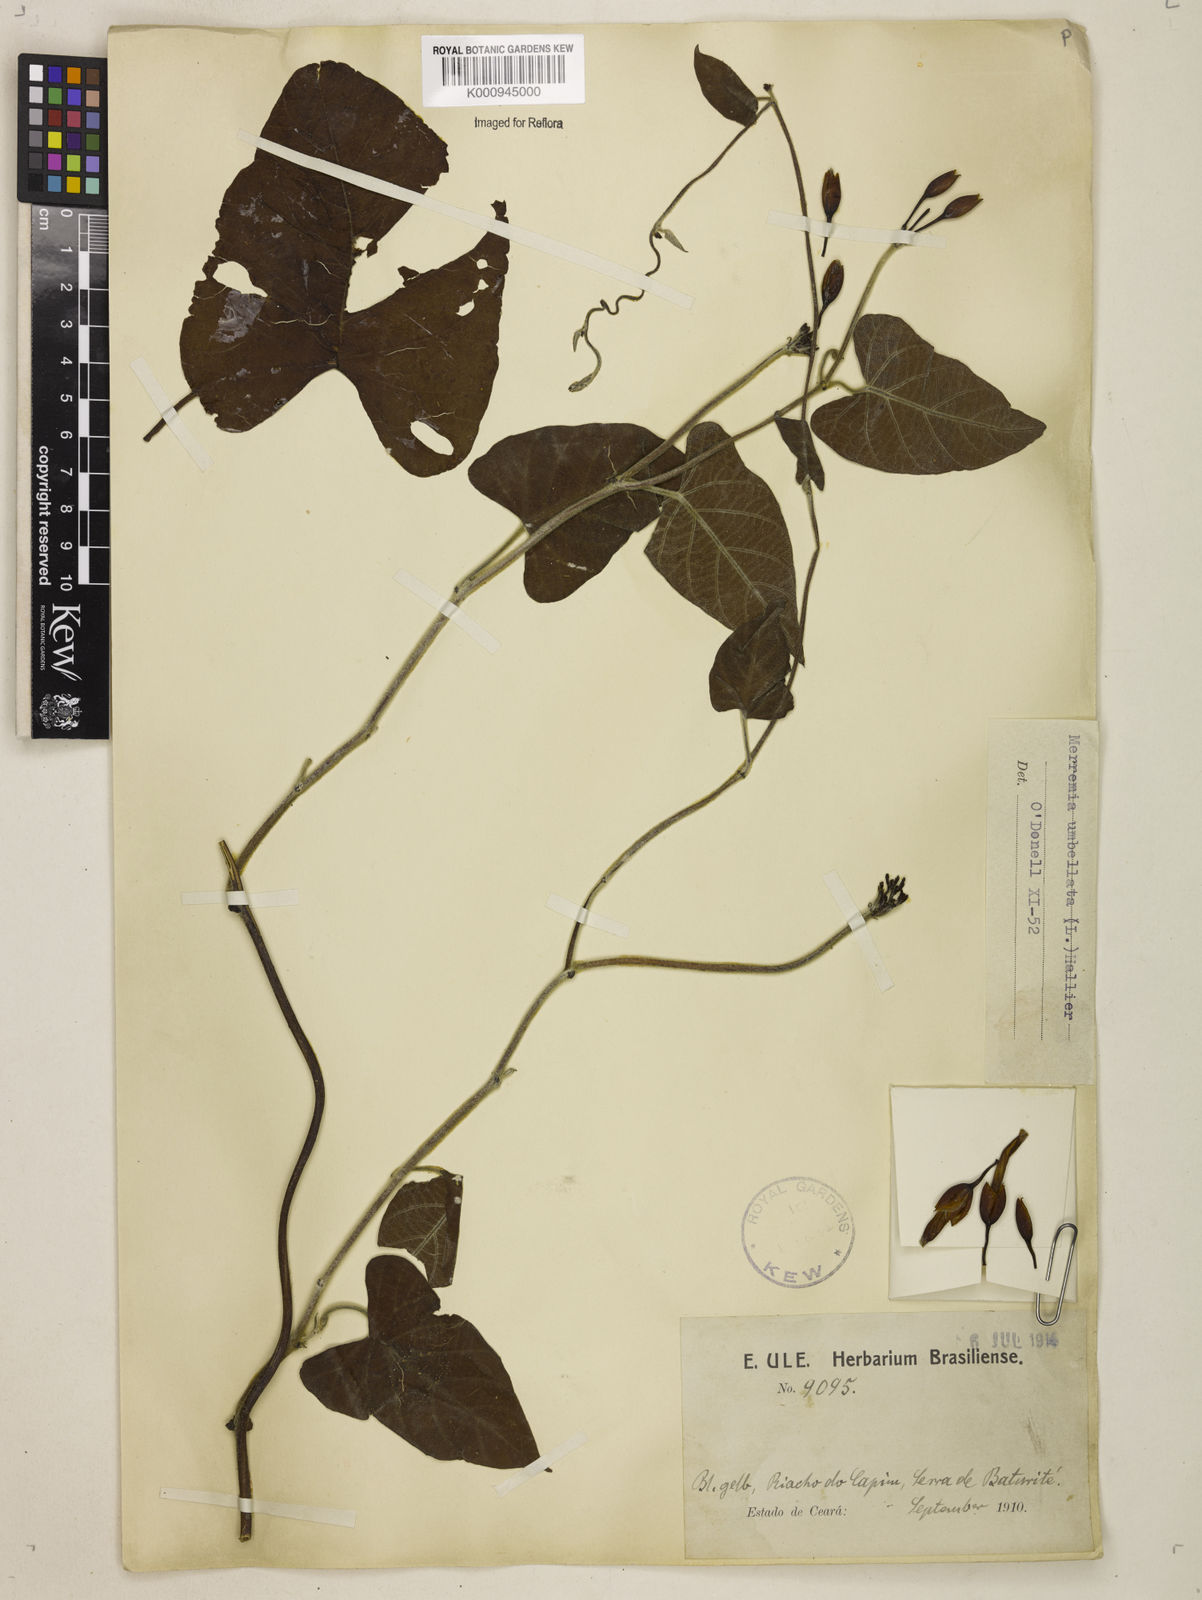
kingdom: Plantae
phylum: Tracheophyta
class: Magnoliopsida
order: Solanales
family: Convolvulaceae
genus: Camonea
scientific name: Camonea umbellata
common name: Hogvine
